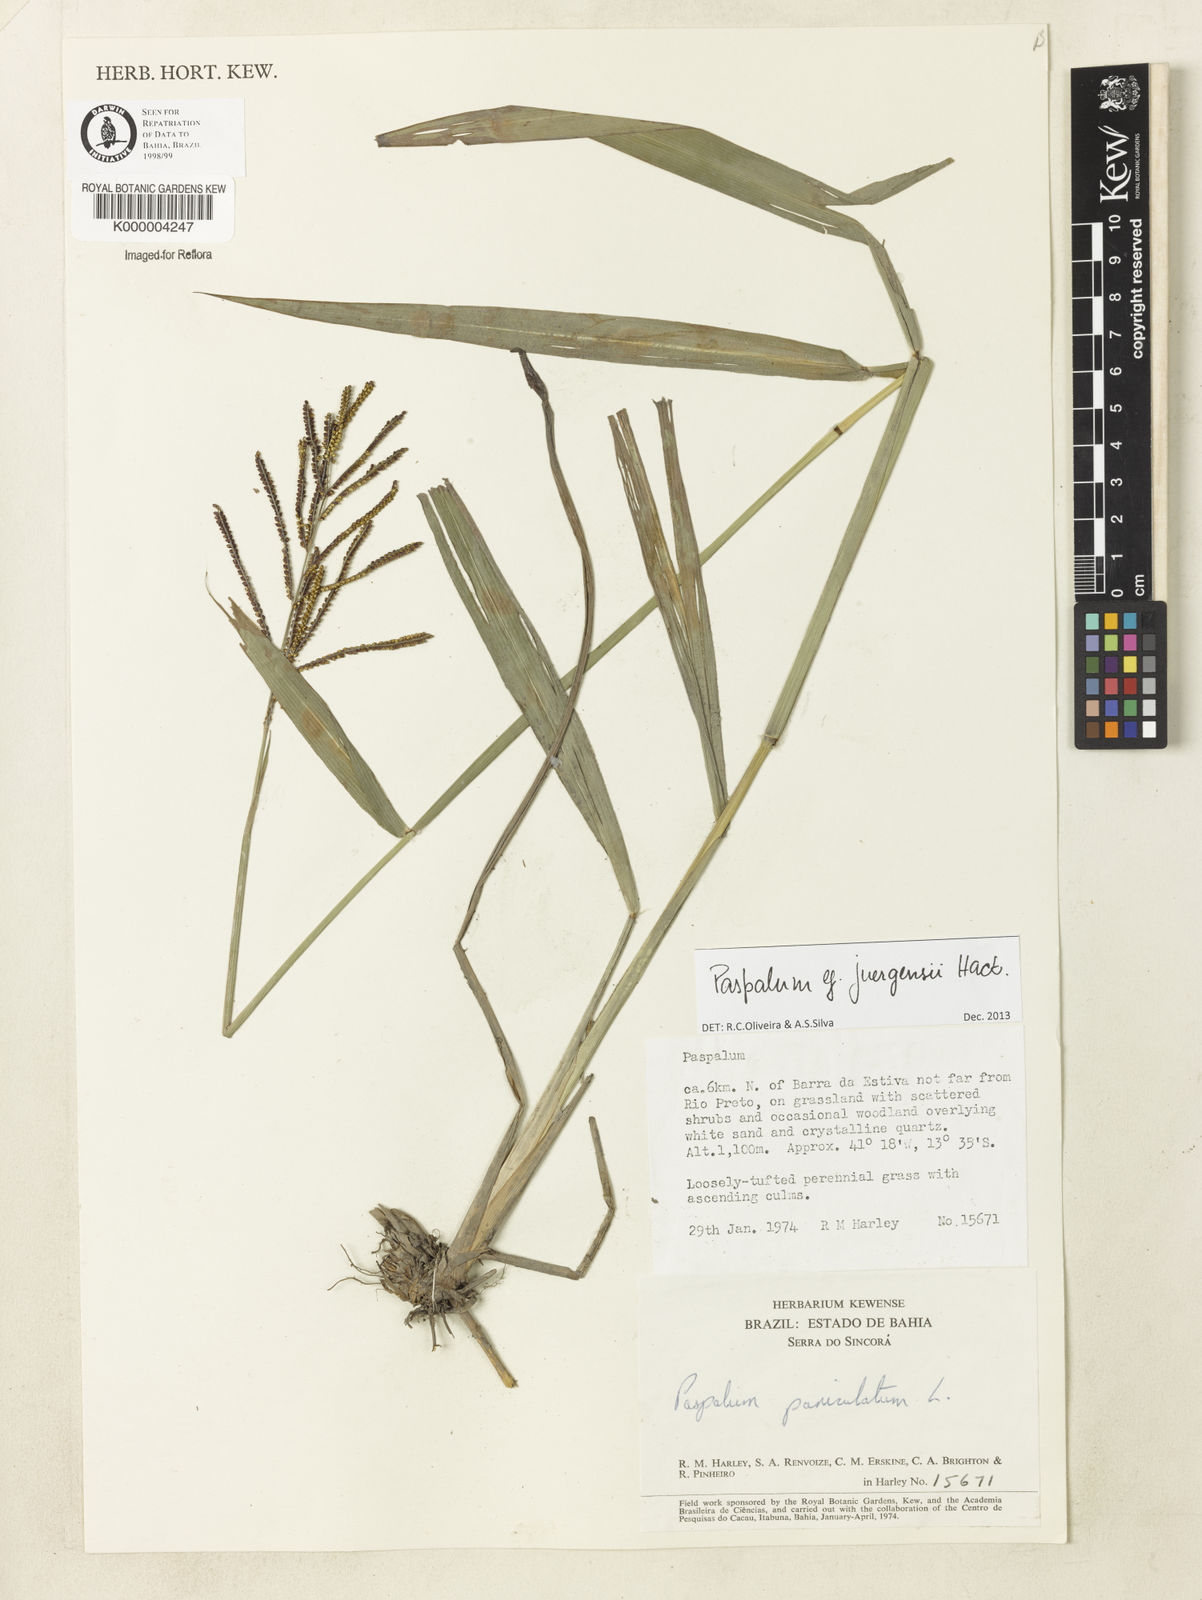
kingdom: Plantae
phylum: Tracheophyta
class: Liliopsida
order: Poales
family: Poaceae
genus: Paspalum
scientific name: Paspalum paniculatum
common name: Arrocillo
